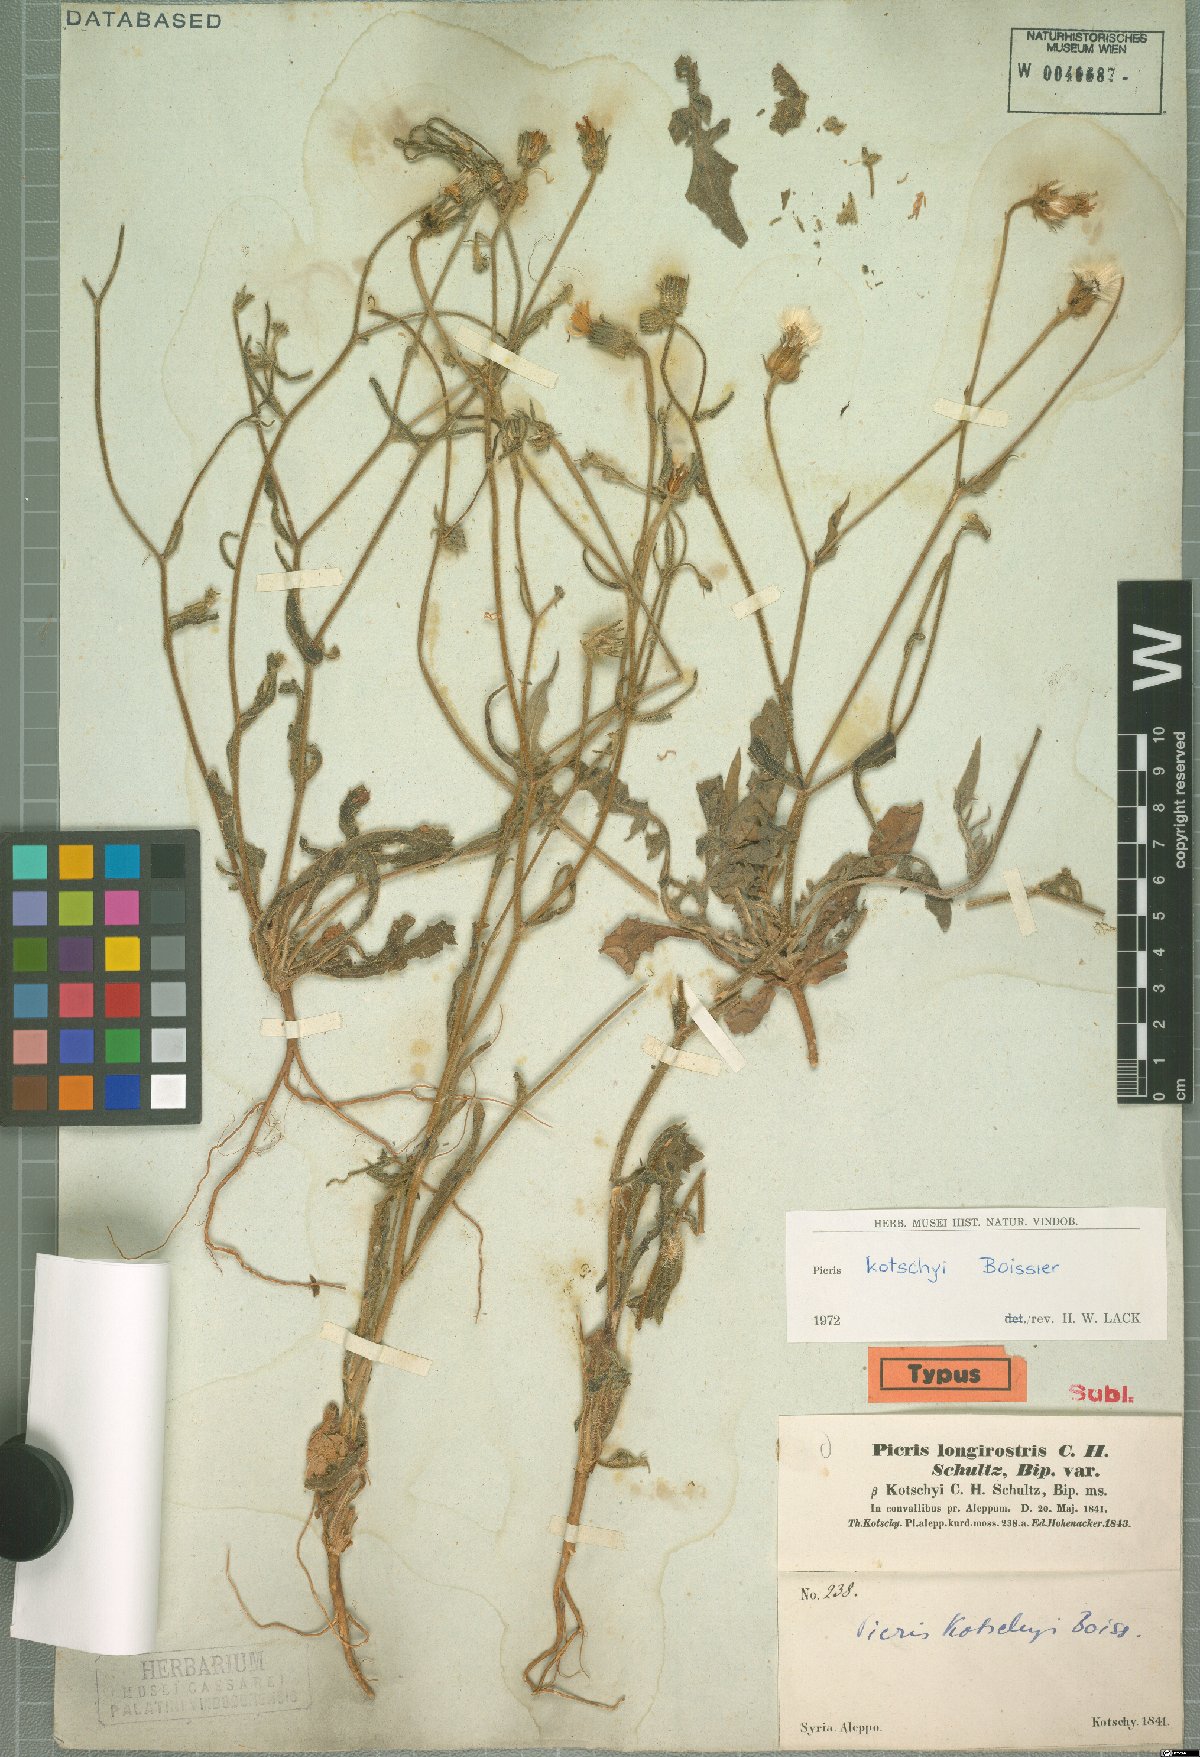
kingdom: Plantae
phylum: Tracheophyta
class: Magnoliopsida
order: Asterales
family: Asteraceae
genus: Picris
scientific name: Picris kotschyi
